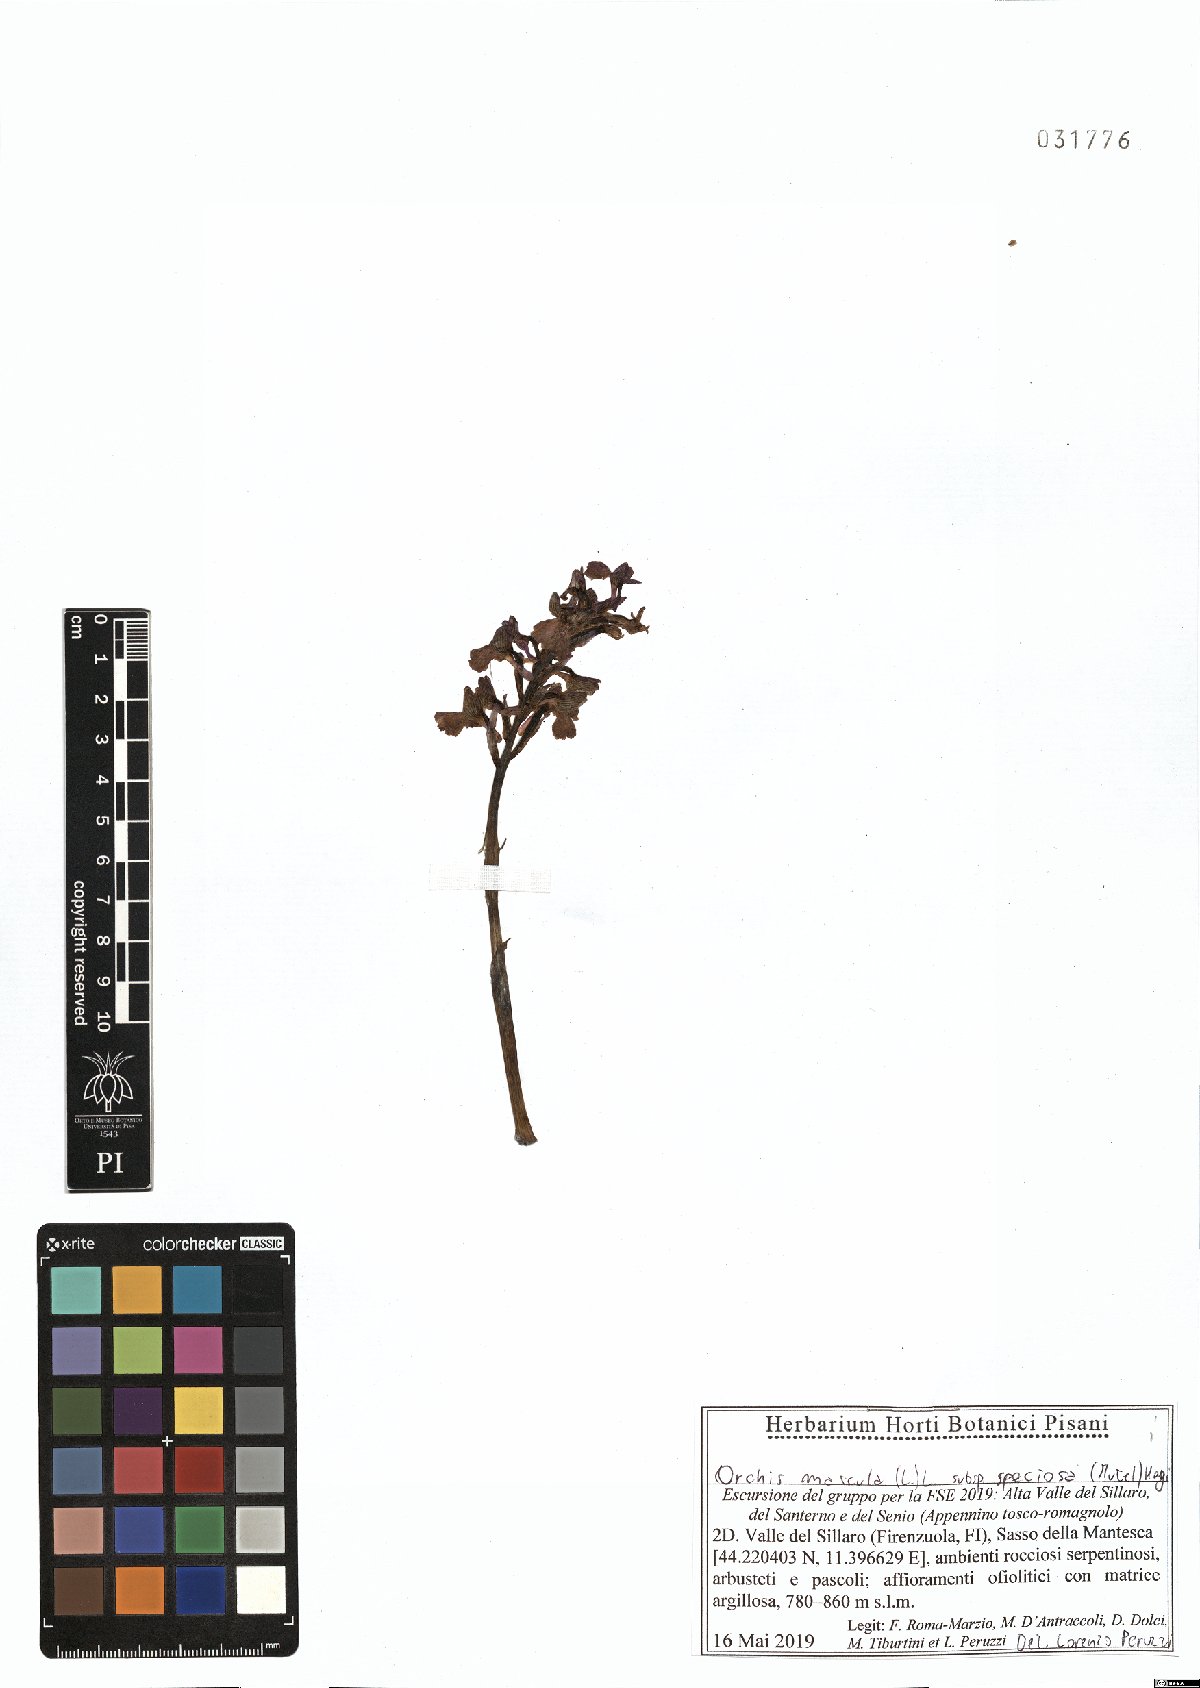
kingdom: Plantae
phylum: Tracheophyta
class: Liliopsida
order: Asparagales
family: Orchidaceae
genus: Orchis
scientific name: Orchis mascula
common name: Early-purple orchid
